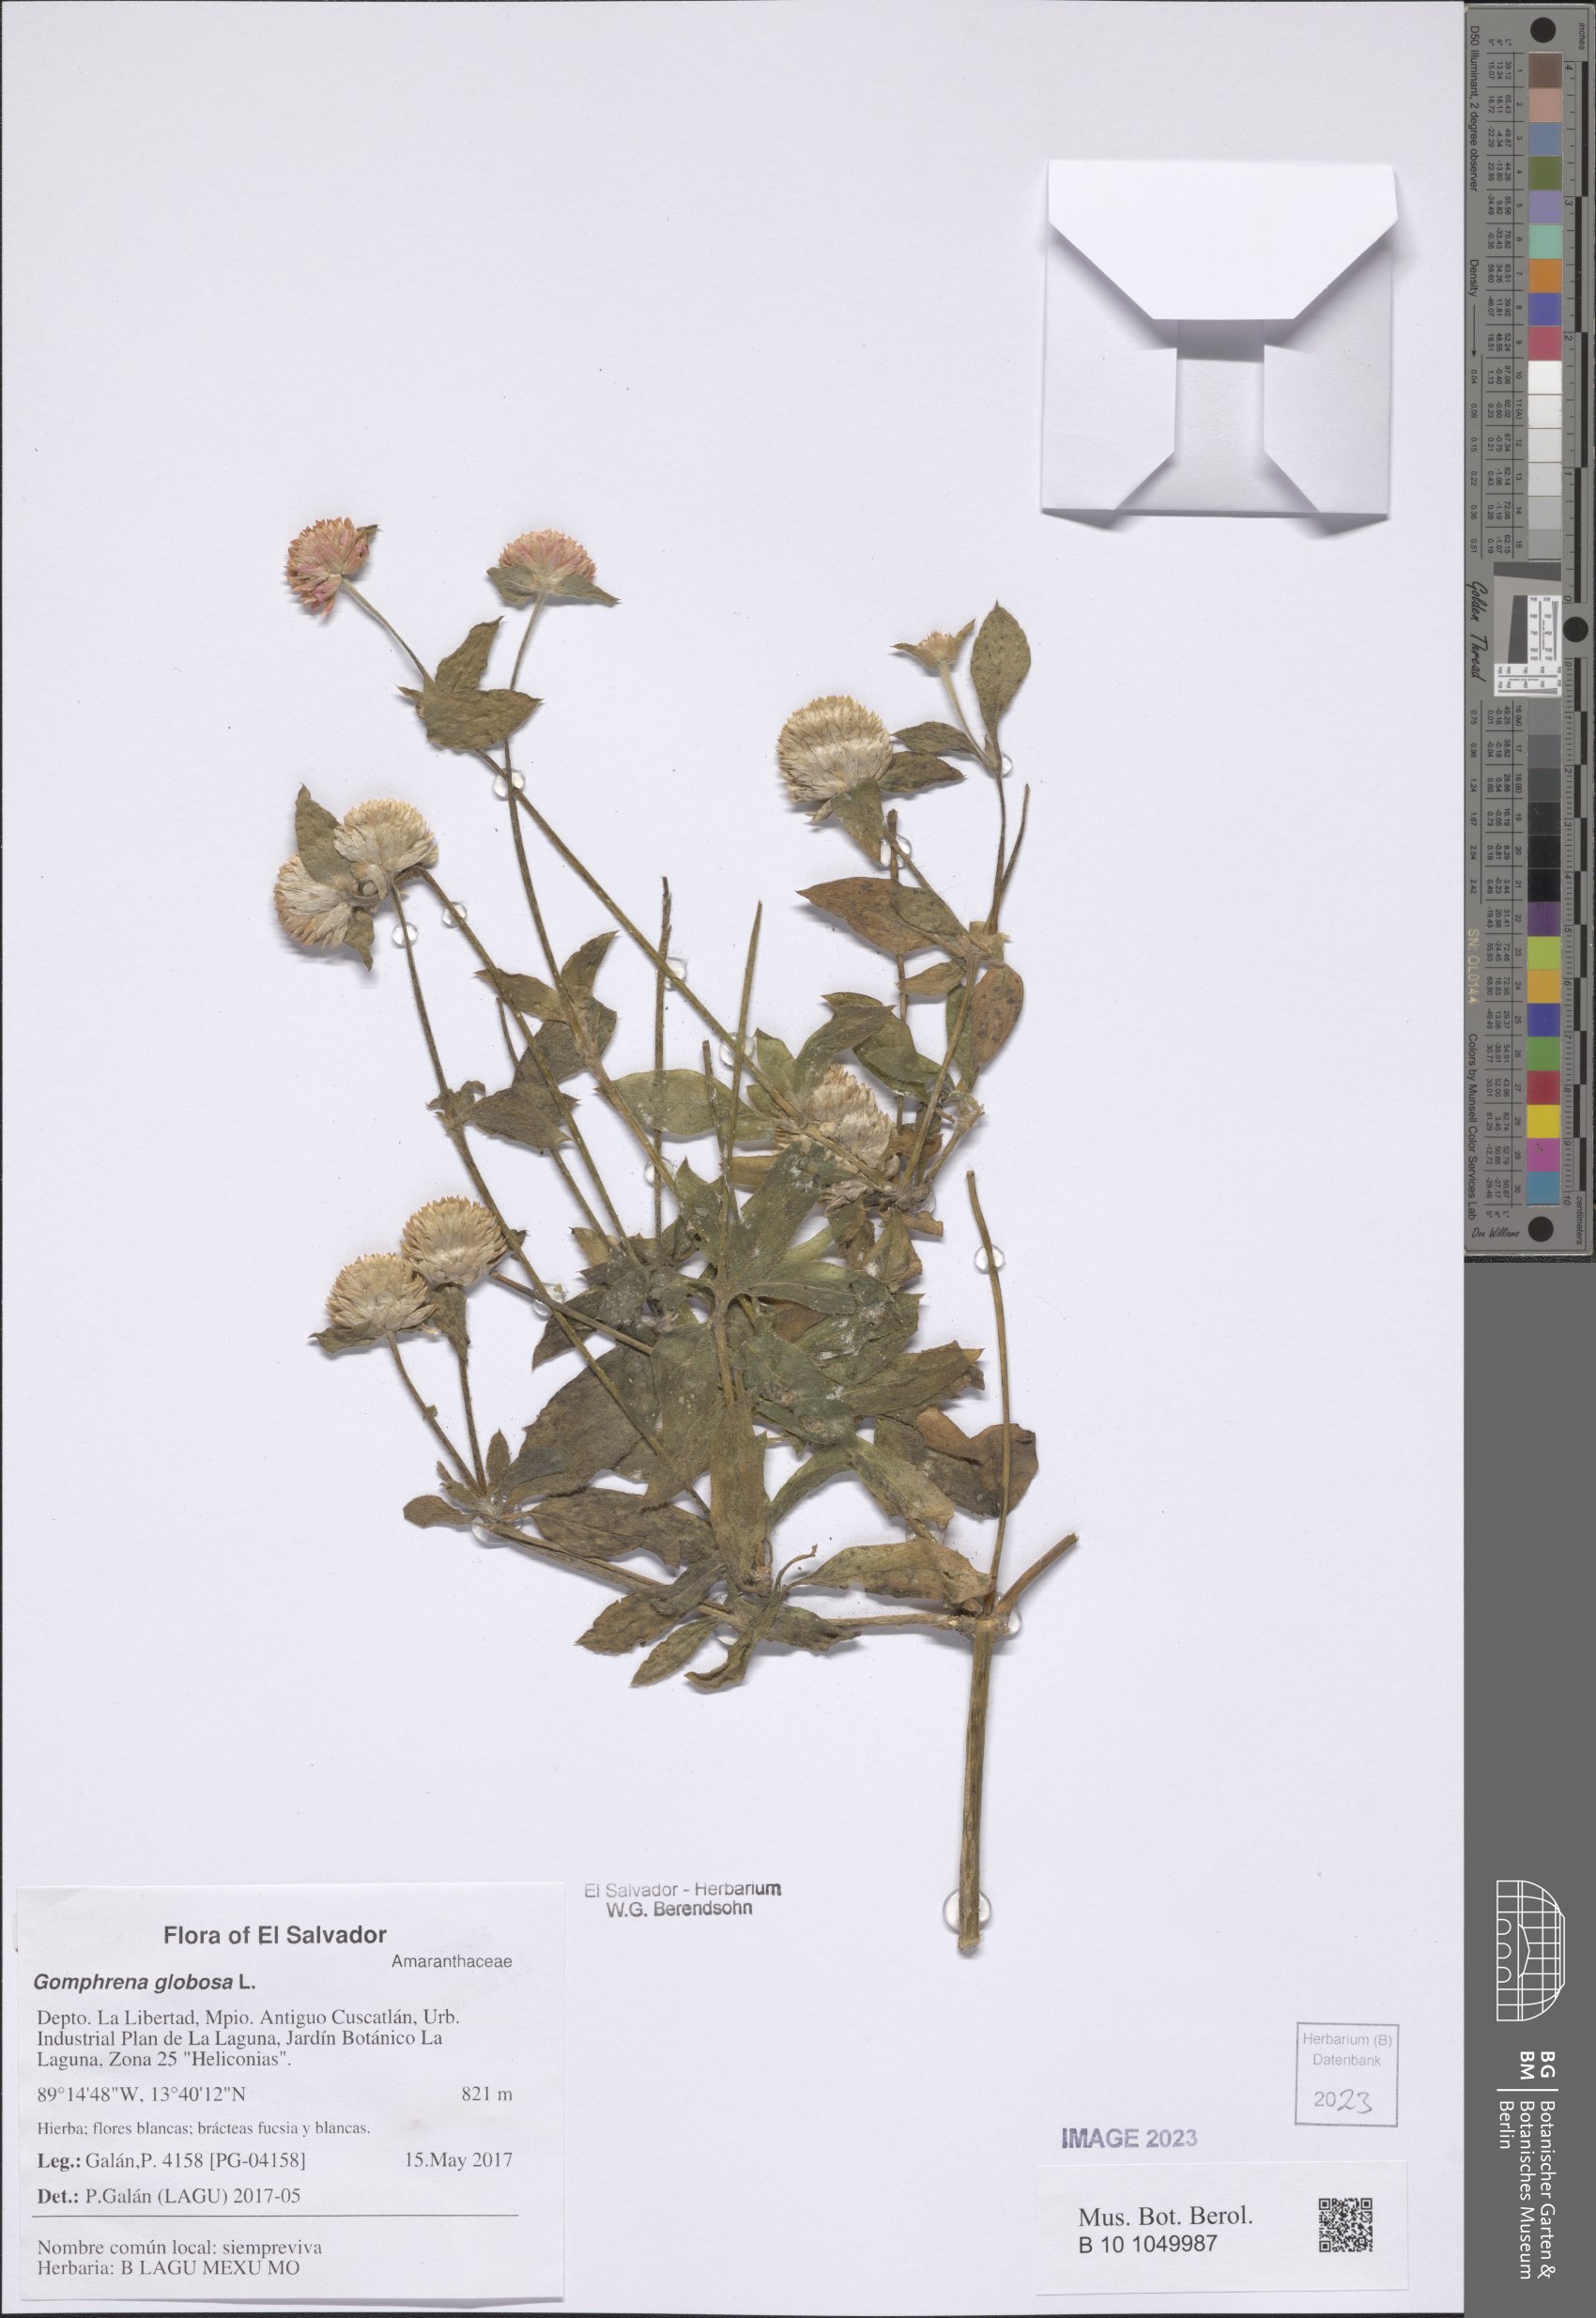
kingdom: Plantae
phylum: Tracheophyta
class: Magnoliopsida
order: Caryophyllales
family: Amaranthaceae
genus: Gomphrena
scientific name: Gomphrena globosa
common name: Common globe amaranth
